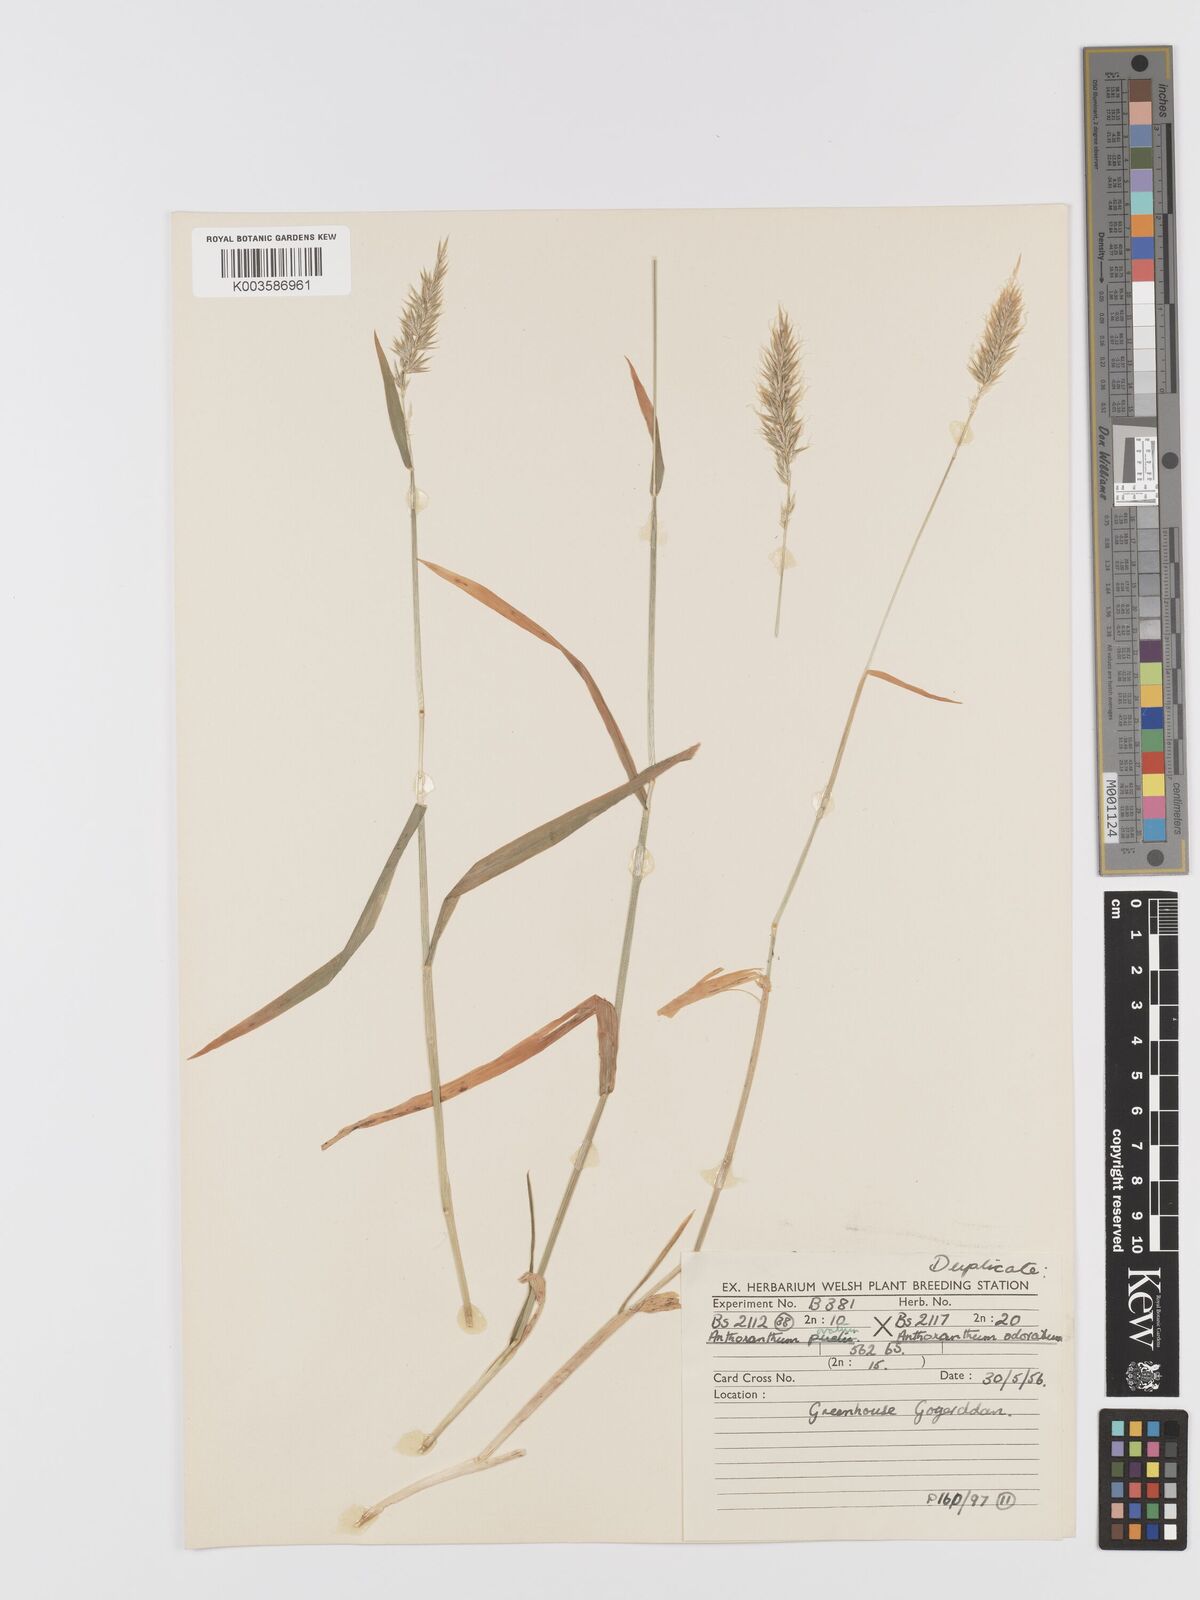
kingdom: Plantae
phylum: Tracheophyta
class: Liliopsida
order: Poales
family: Poaceae
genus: Anthoxanthum
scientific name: Anthoxanthum odoratum
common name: Sweet vernalgrass
